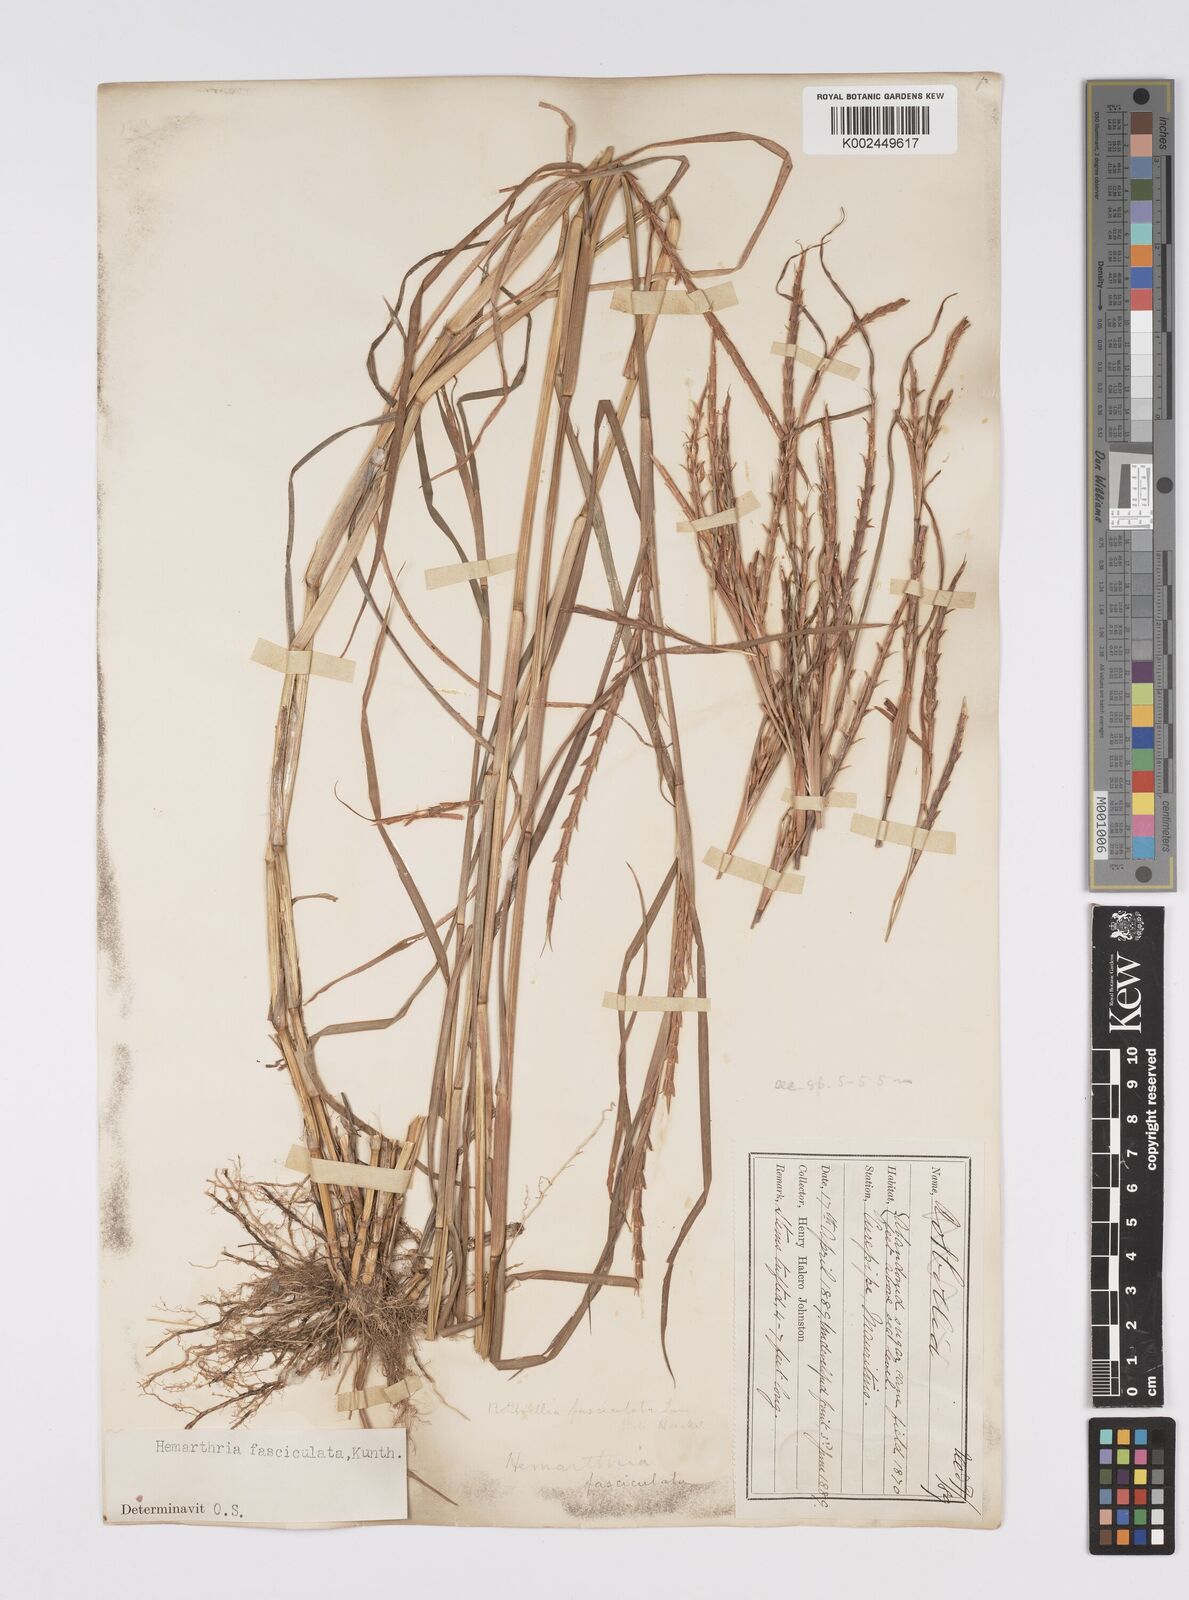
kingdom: Plantae
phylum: Tracheophyta
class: Liliopsida
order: Poales
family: Poaceae
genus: Hemarthria
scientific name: Hemarthria altissima
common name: African jointgrass
